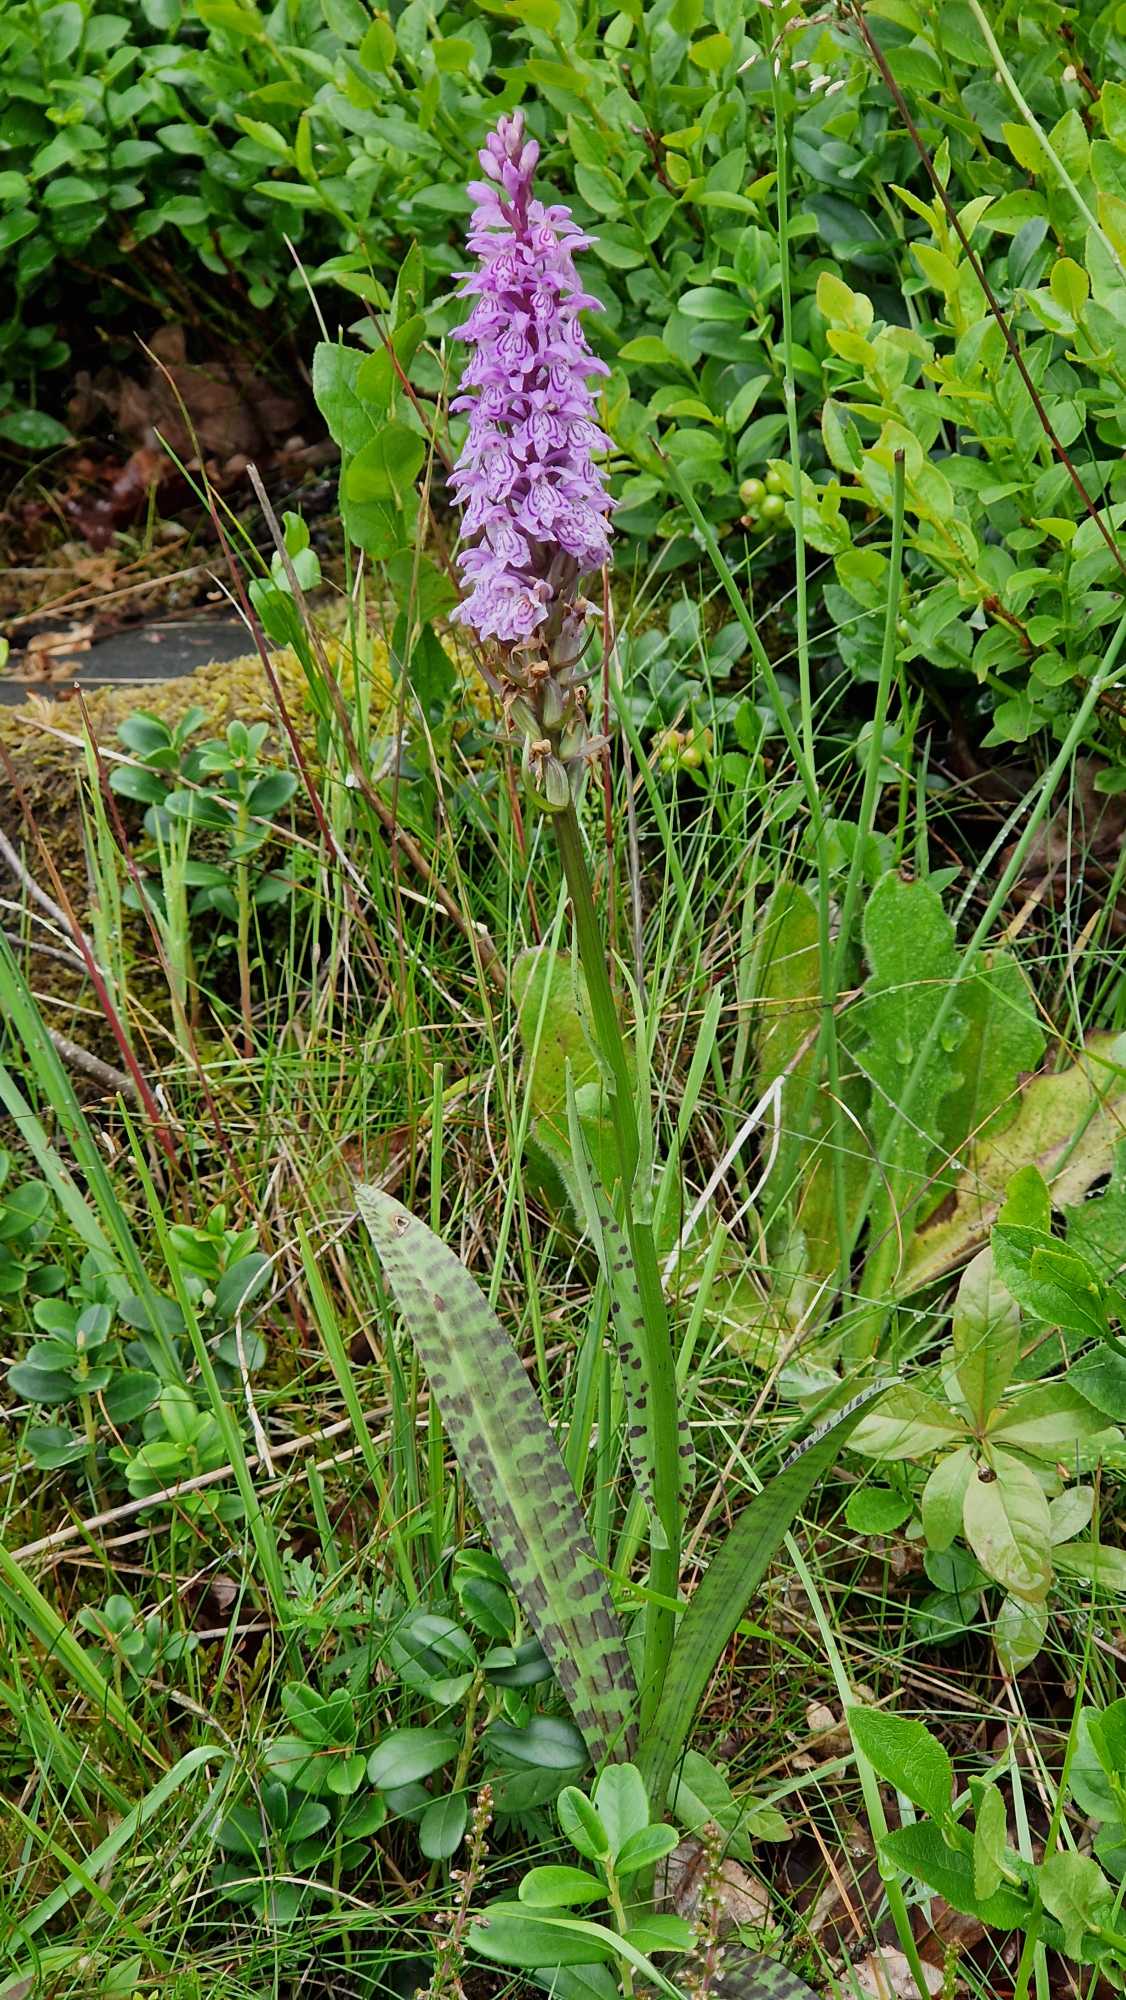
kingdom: Plantae
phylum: Tracheophyta
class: Liliopsida
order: Asparagales
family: Orchidaceae
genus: Dactylorhiza
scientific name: Dactylorhiza maculata
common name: Plettet gøgeurt
